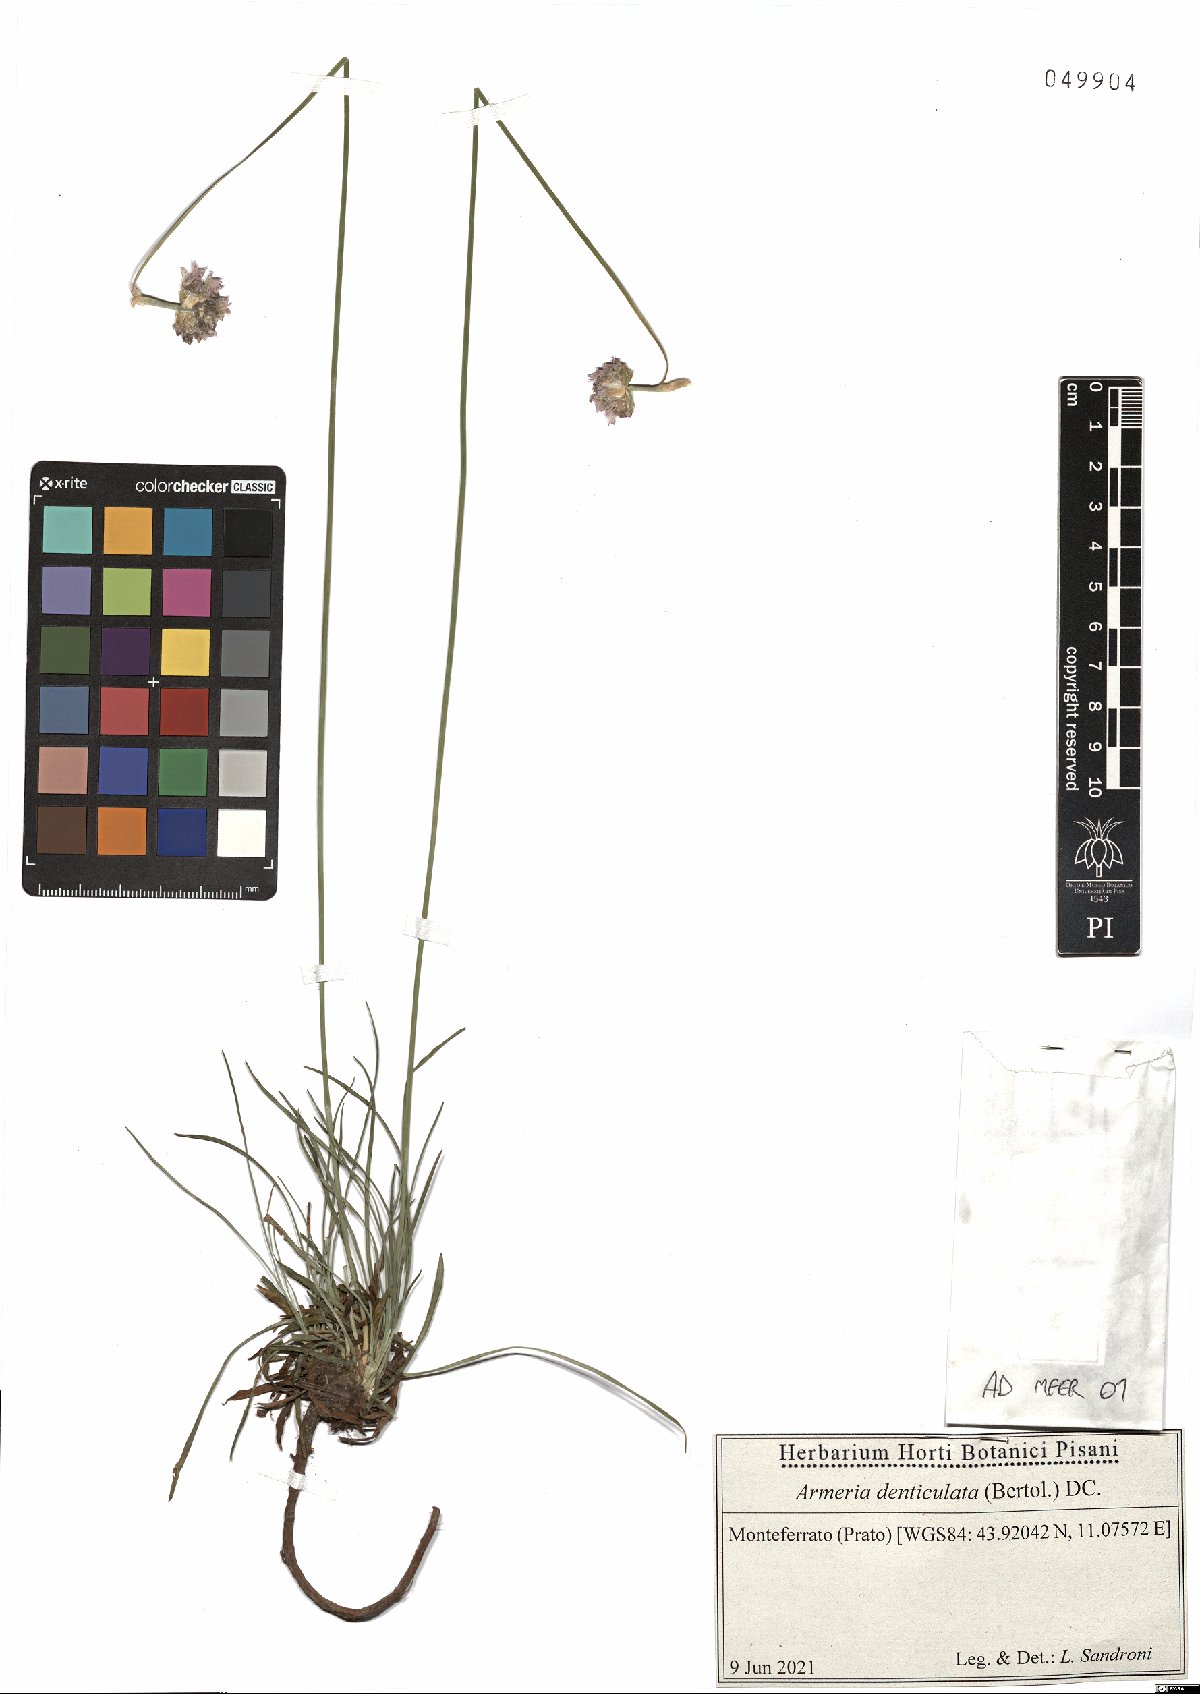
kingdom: Plantae
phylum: Tracheophyta
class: Magnoliopsida
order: Caryophyllales
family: Plumbaginaceae
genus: Armeria
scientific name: Armeria denticulata
